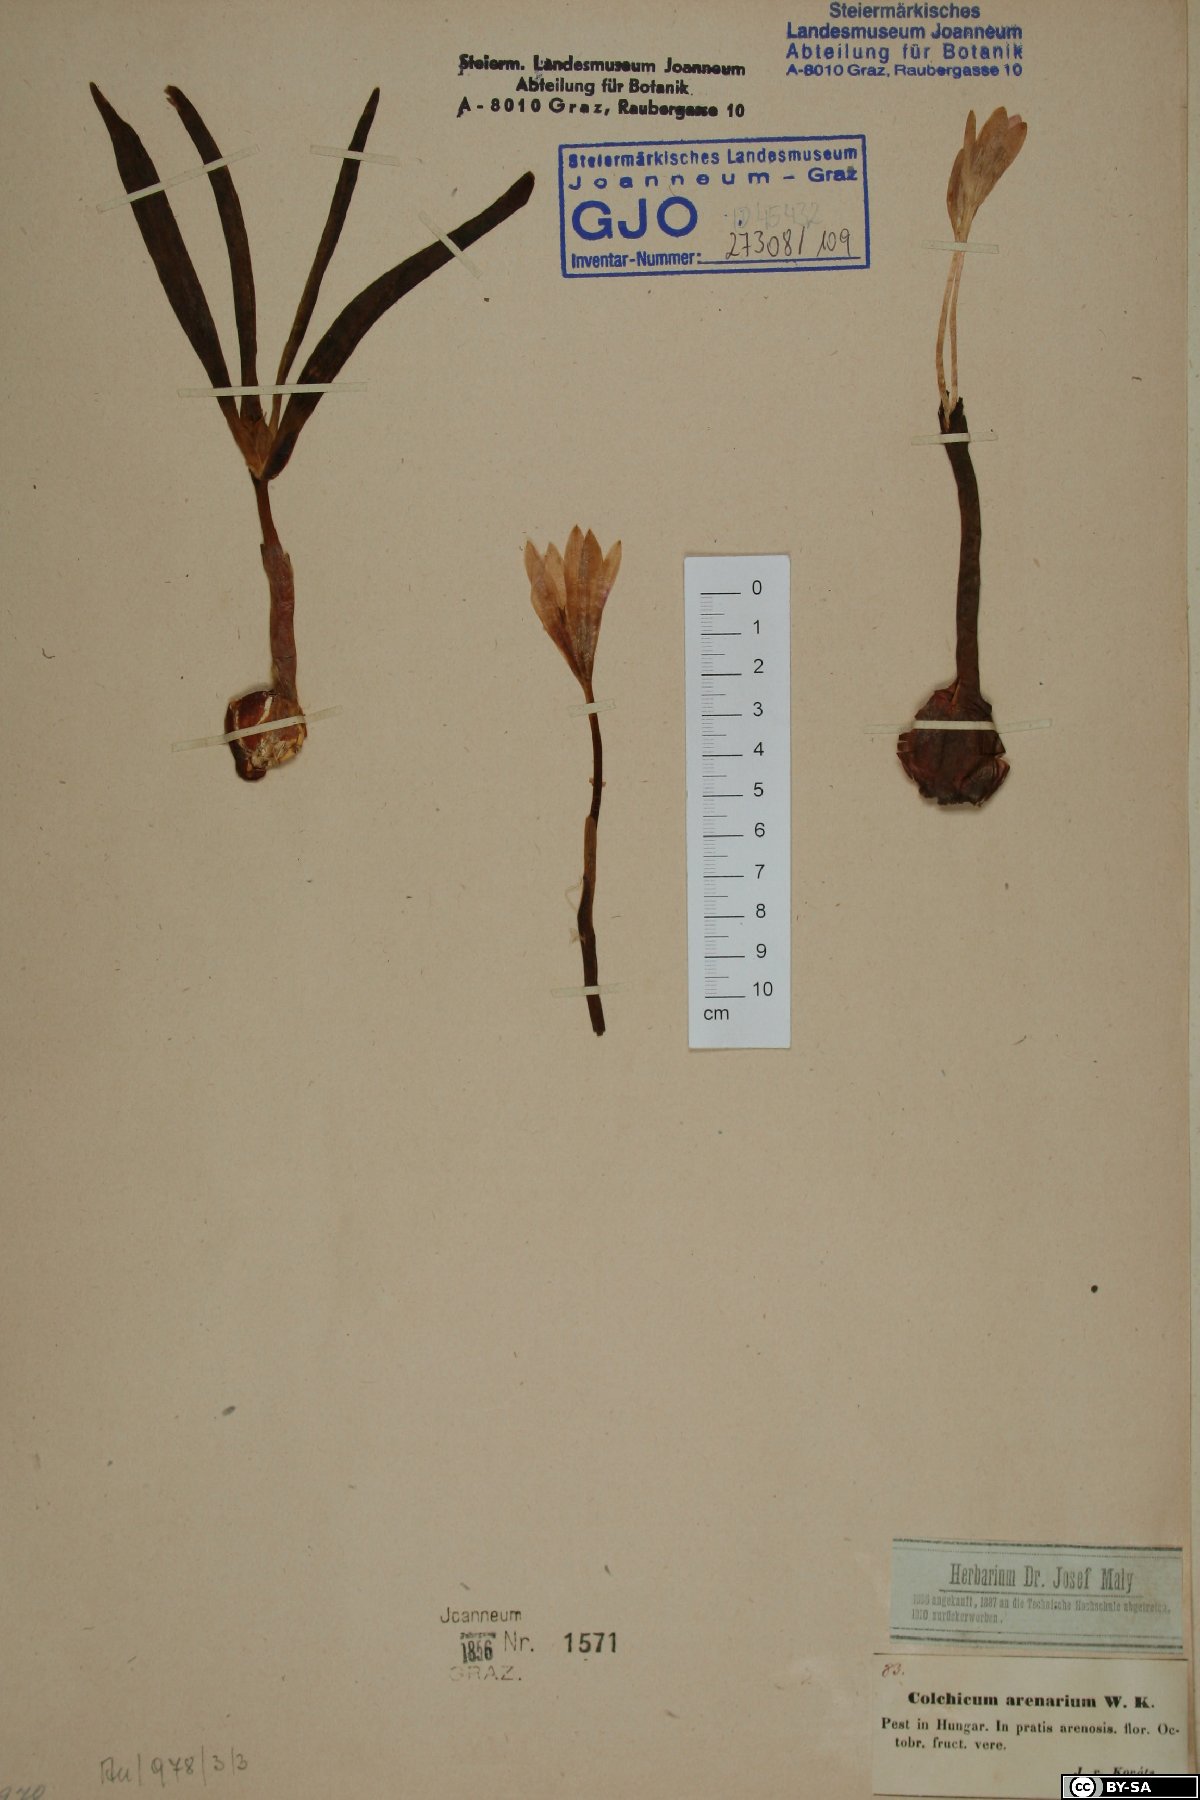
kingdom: Plantae
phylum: Tracheophyta
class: Liliopsida
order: Liliales
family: Colchicaceae
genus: Colchicum
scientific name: Colchicum arenarium
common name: Sand saffron
